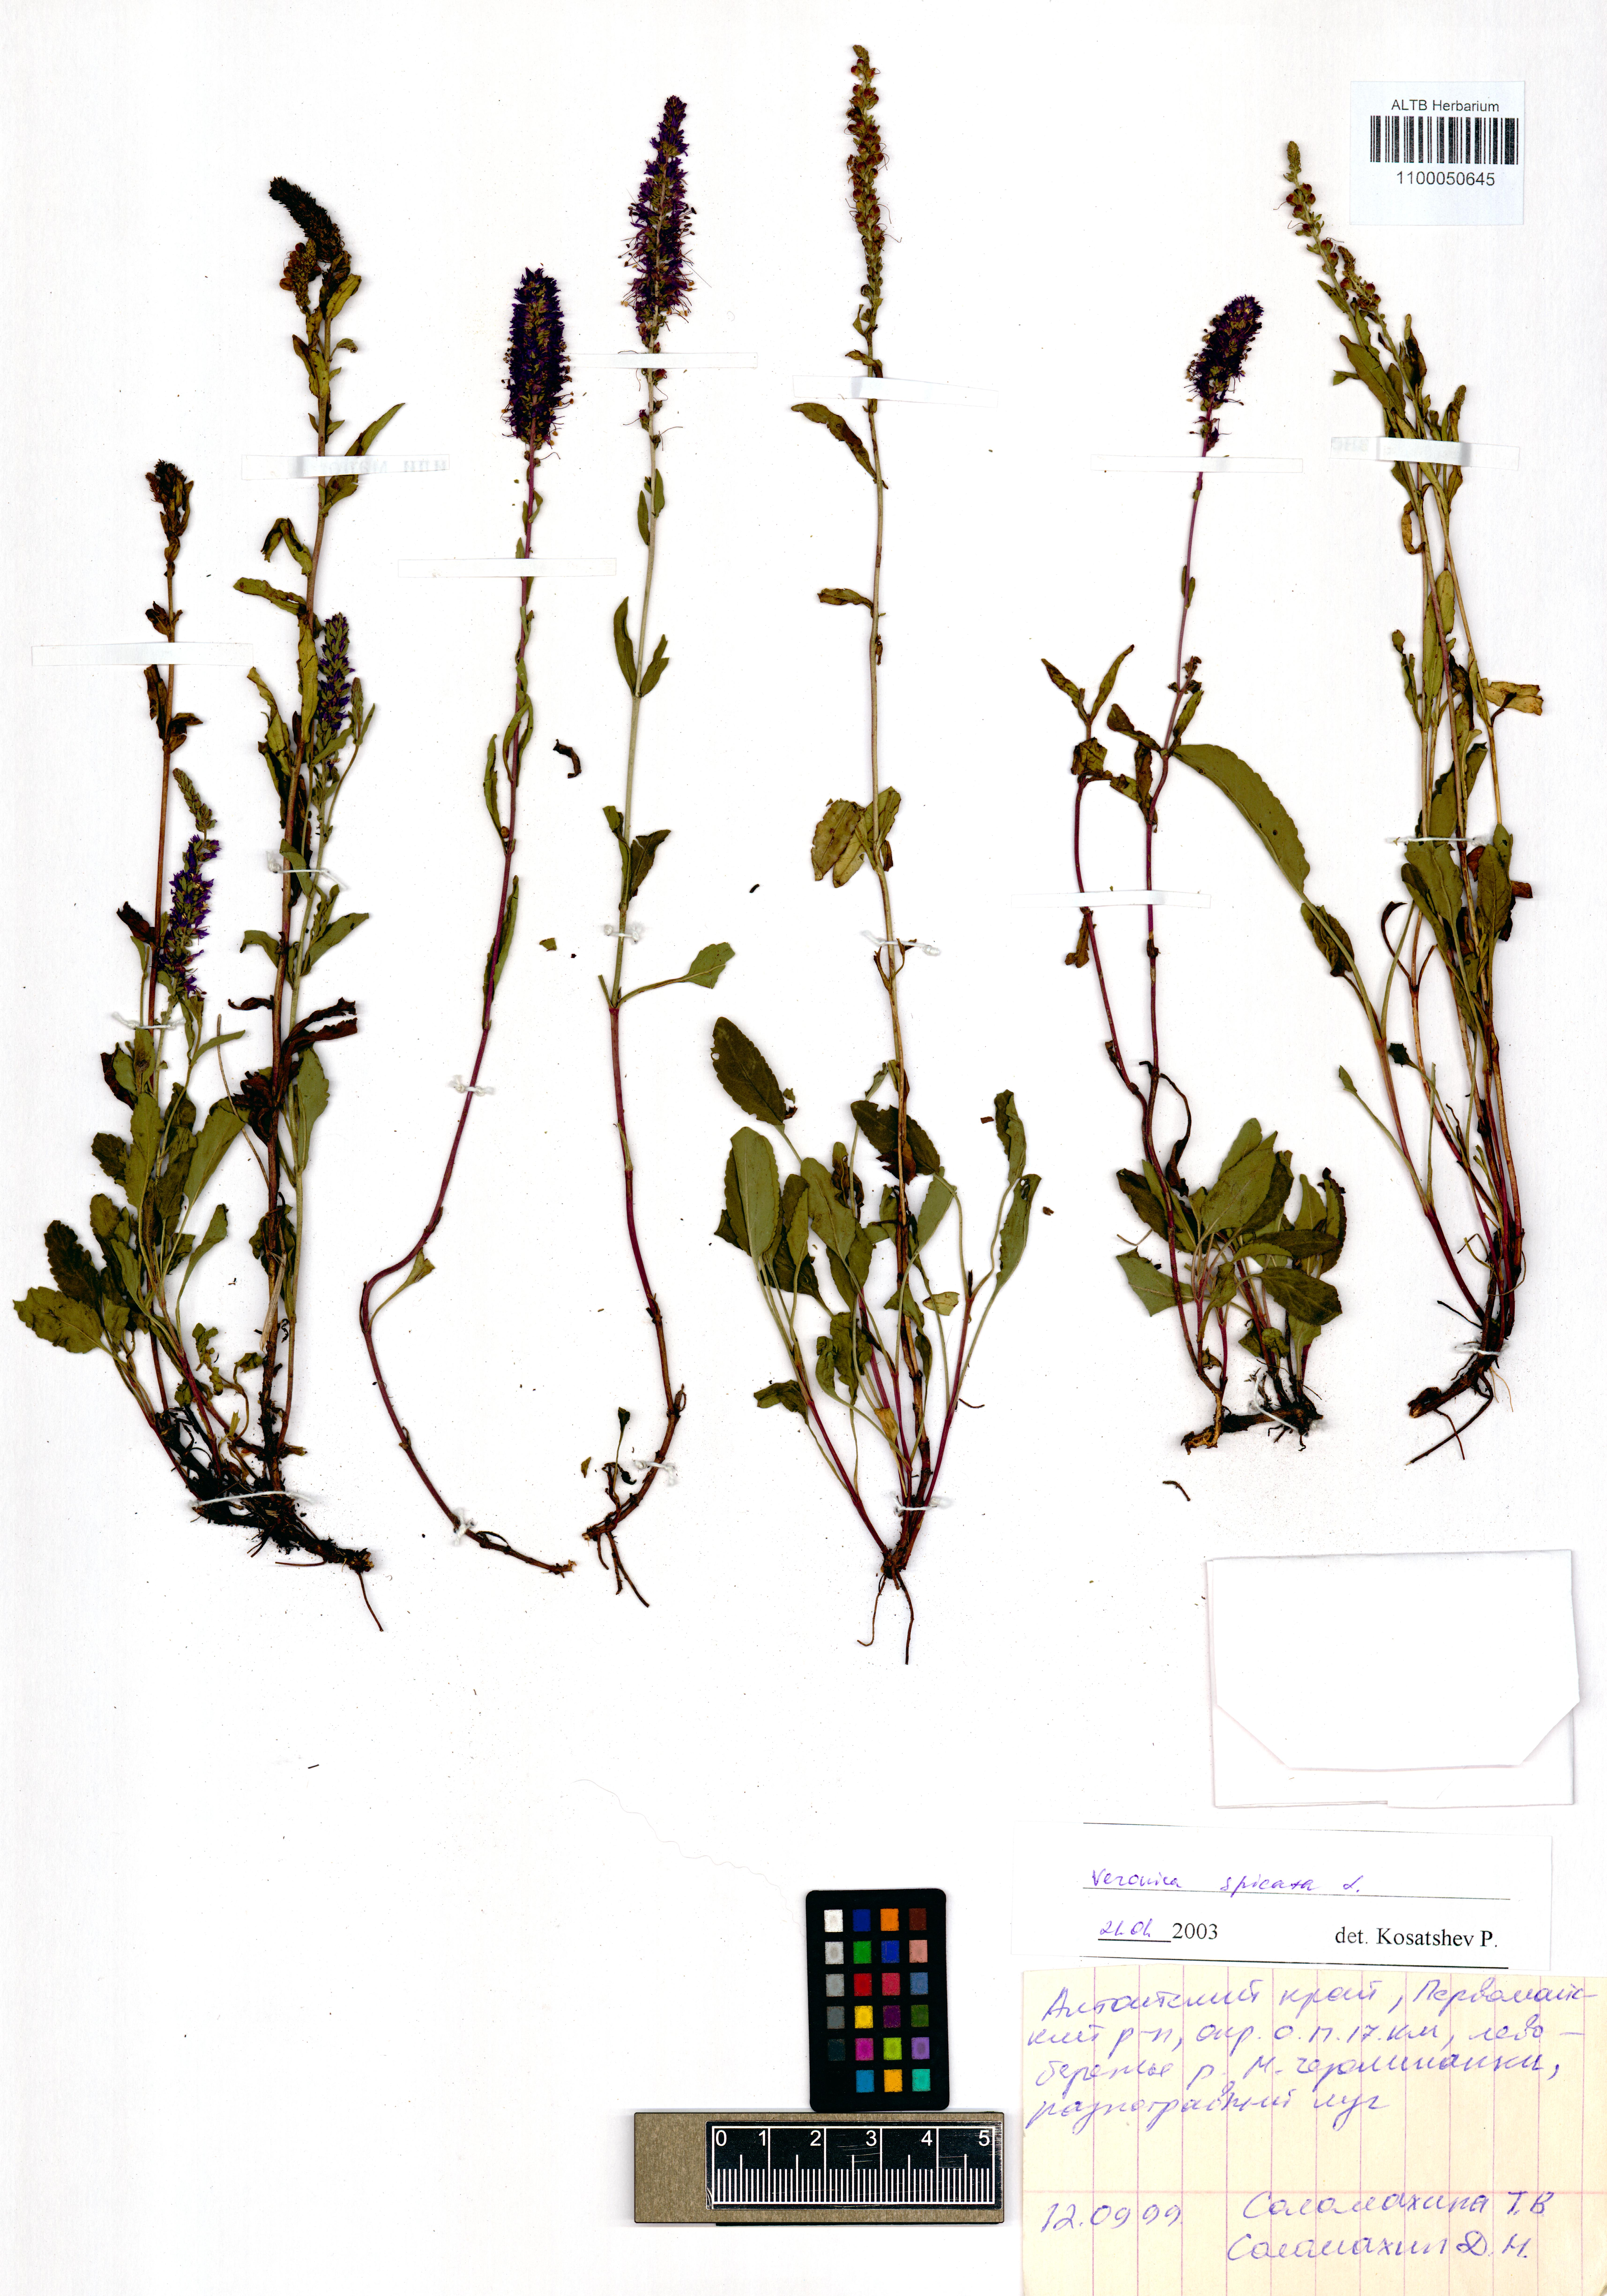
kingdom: Plantae
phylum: Tracheophyta
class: Magnoliopsida
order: Lamiales
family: Plantaginaceae
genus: Veronica
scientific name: Veronica spicata
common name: Spiked speedwell
